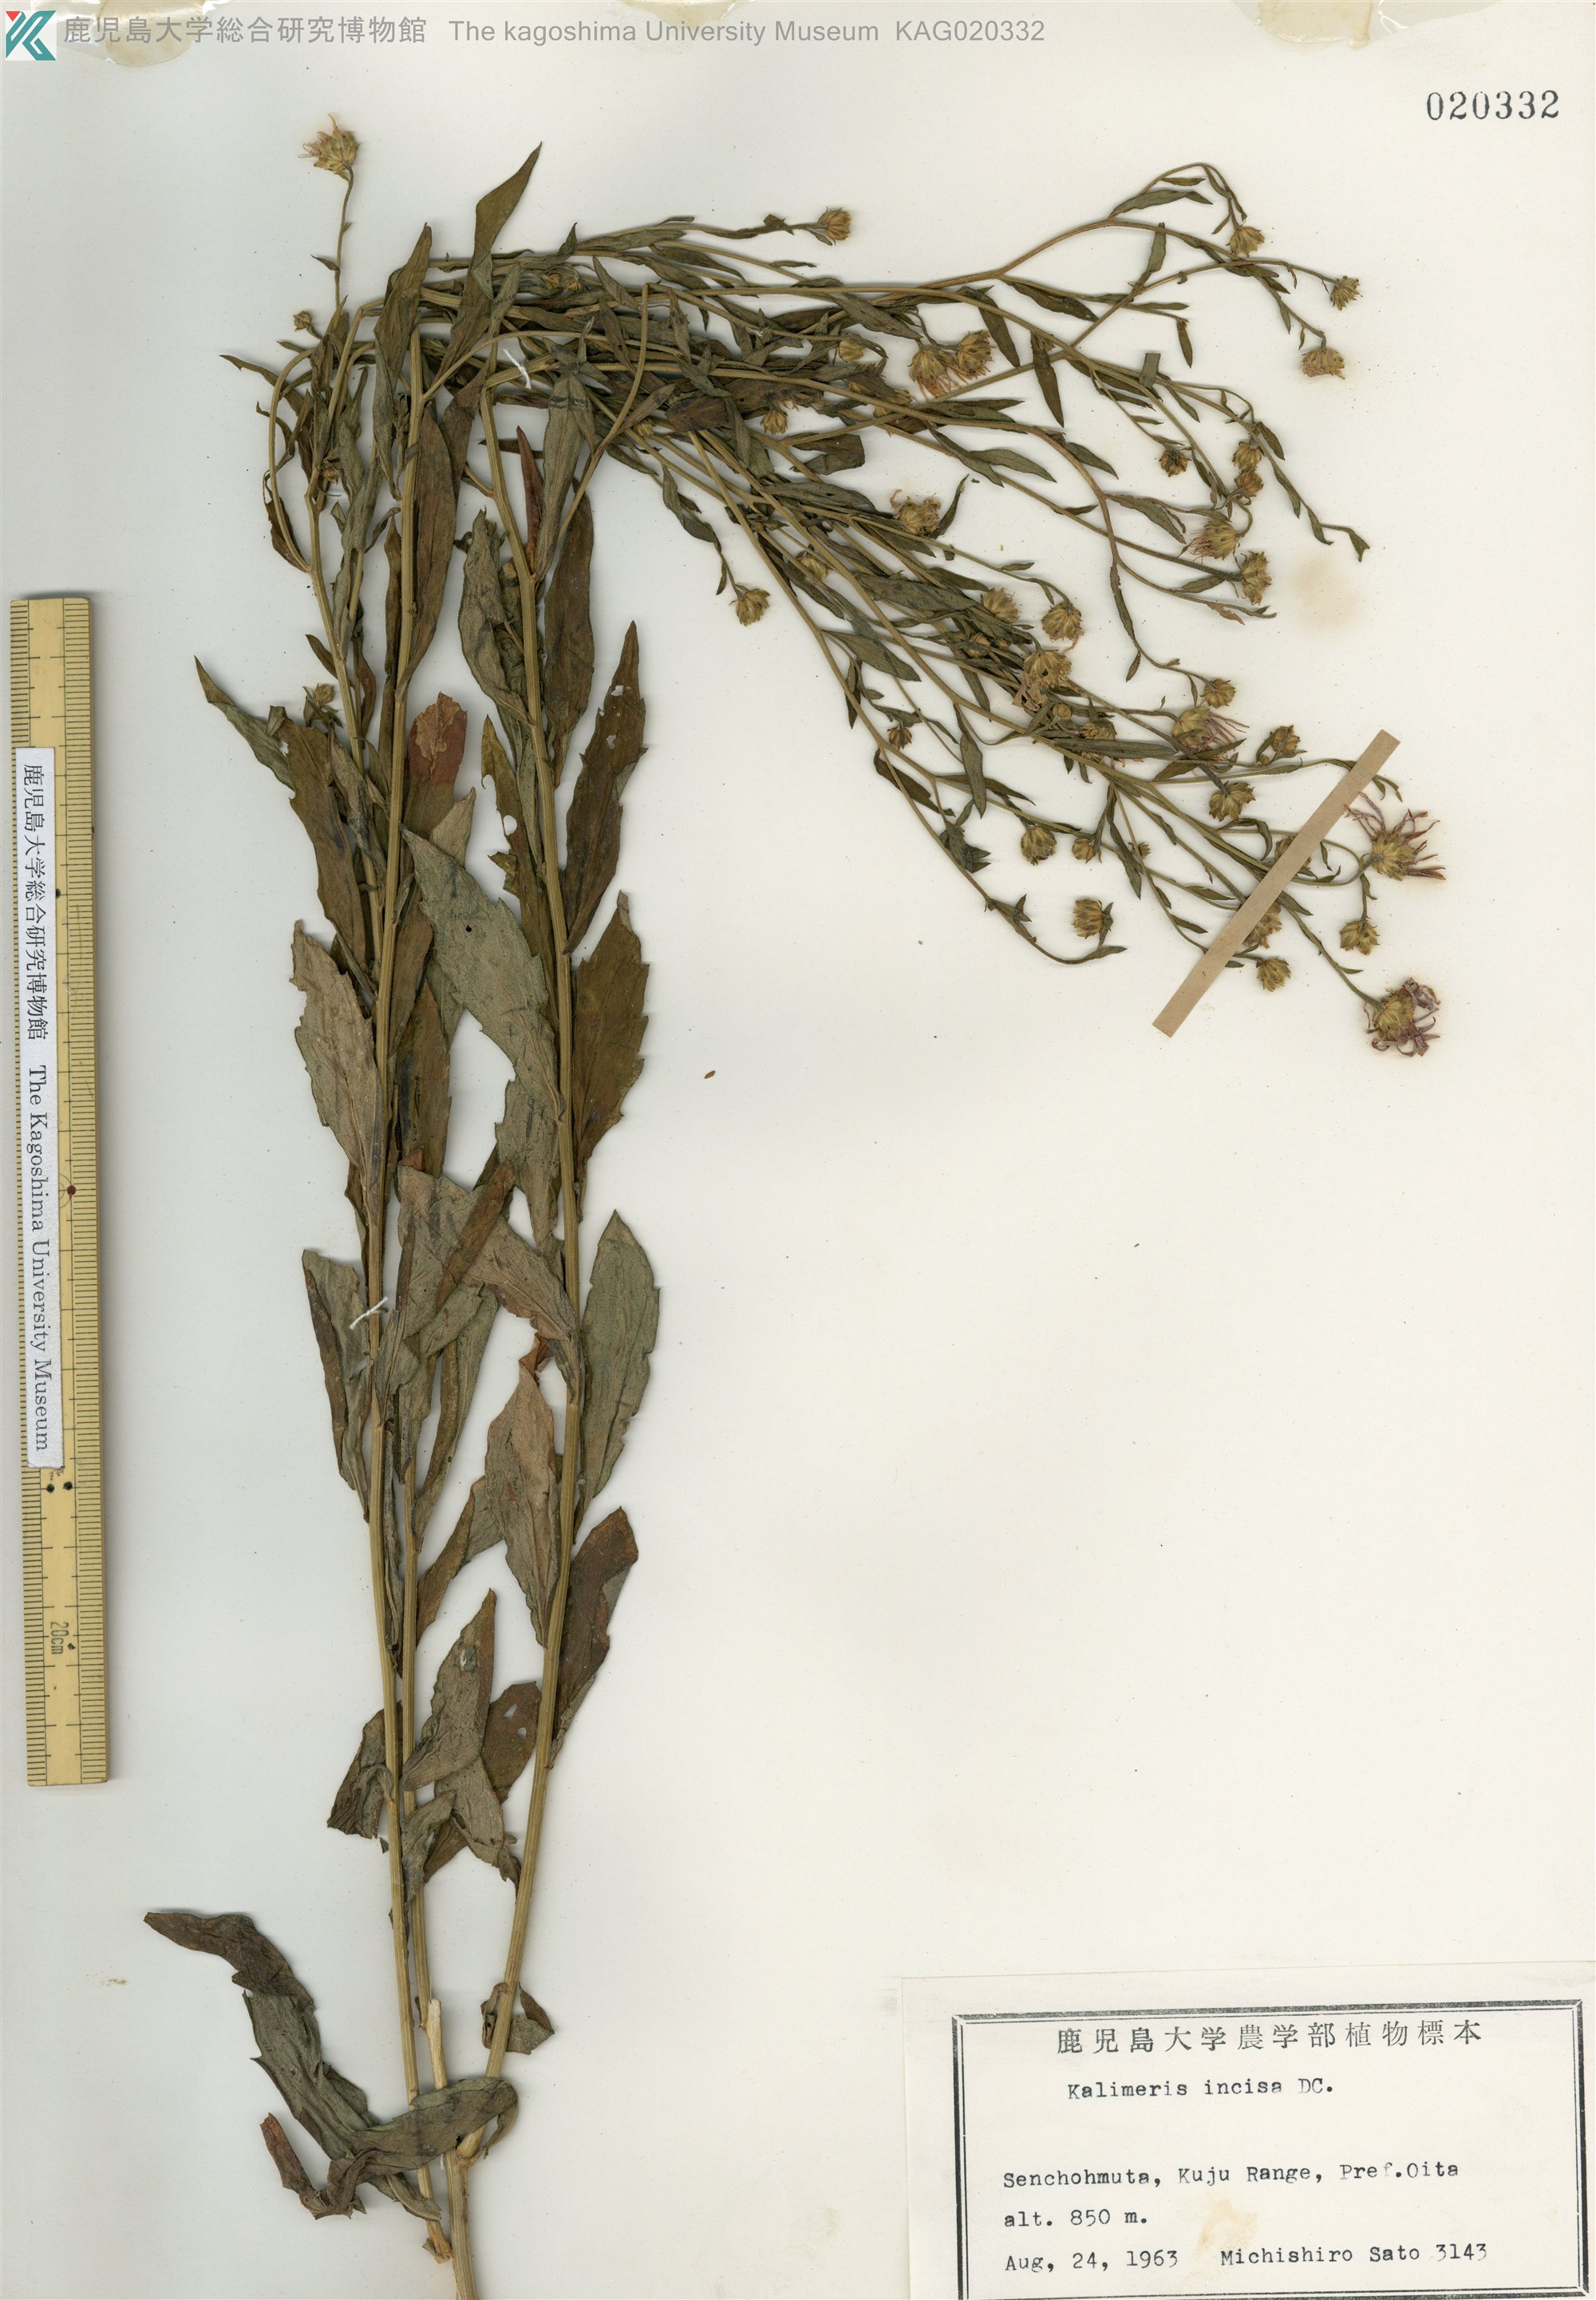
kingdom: Plantae
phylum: Tracheophyta
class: Magnoliopsida
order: Asterales
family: Asteraceae
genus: Kalimeris
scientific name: Kalimeris yomena
